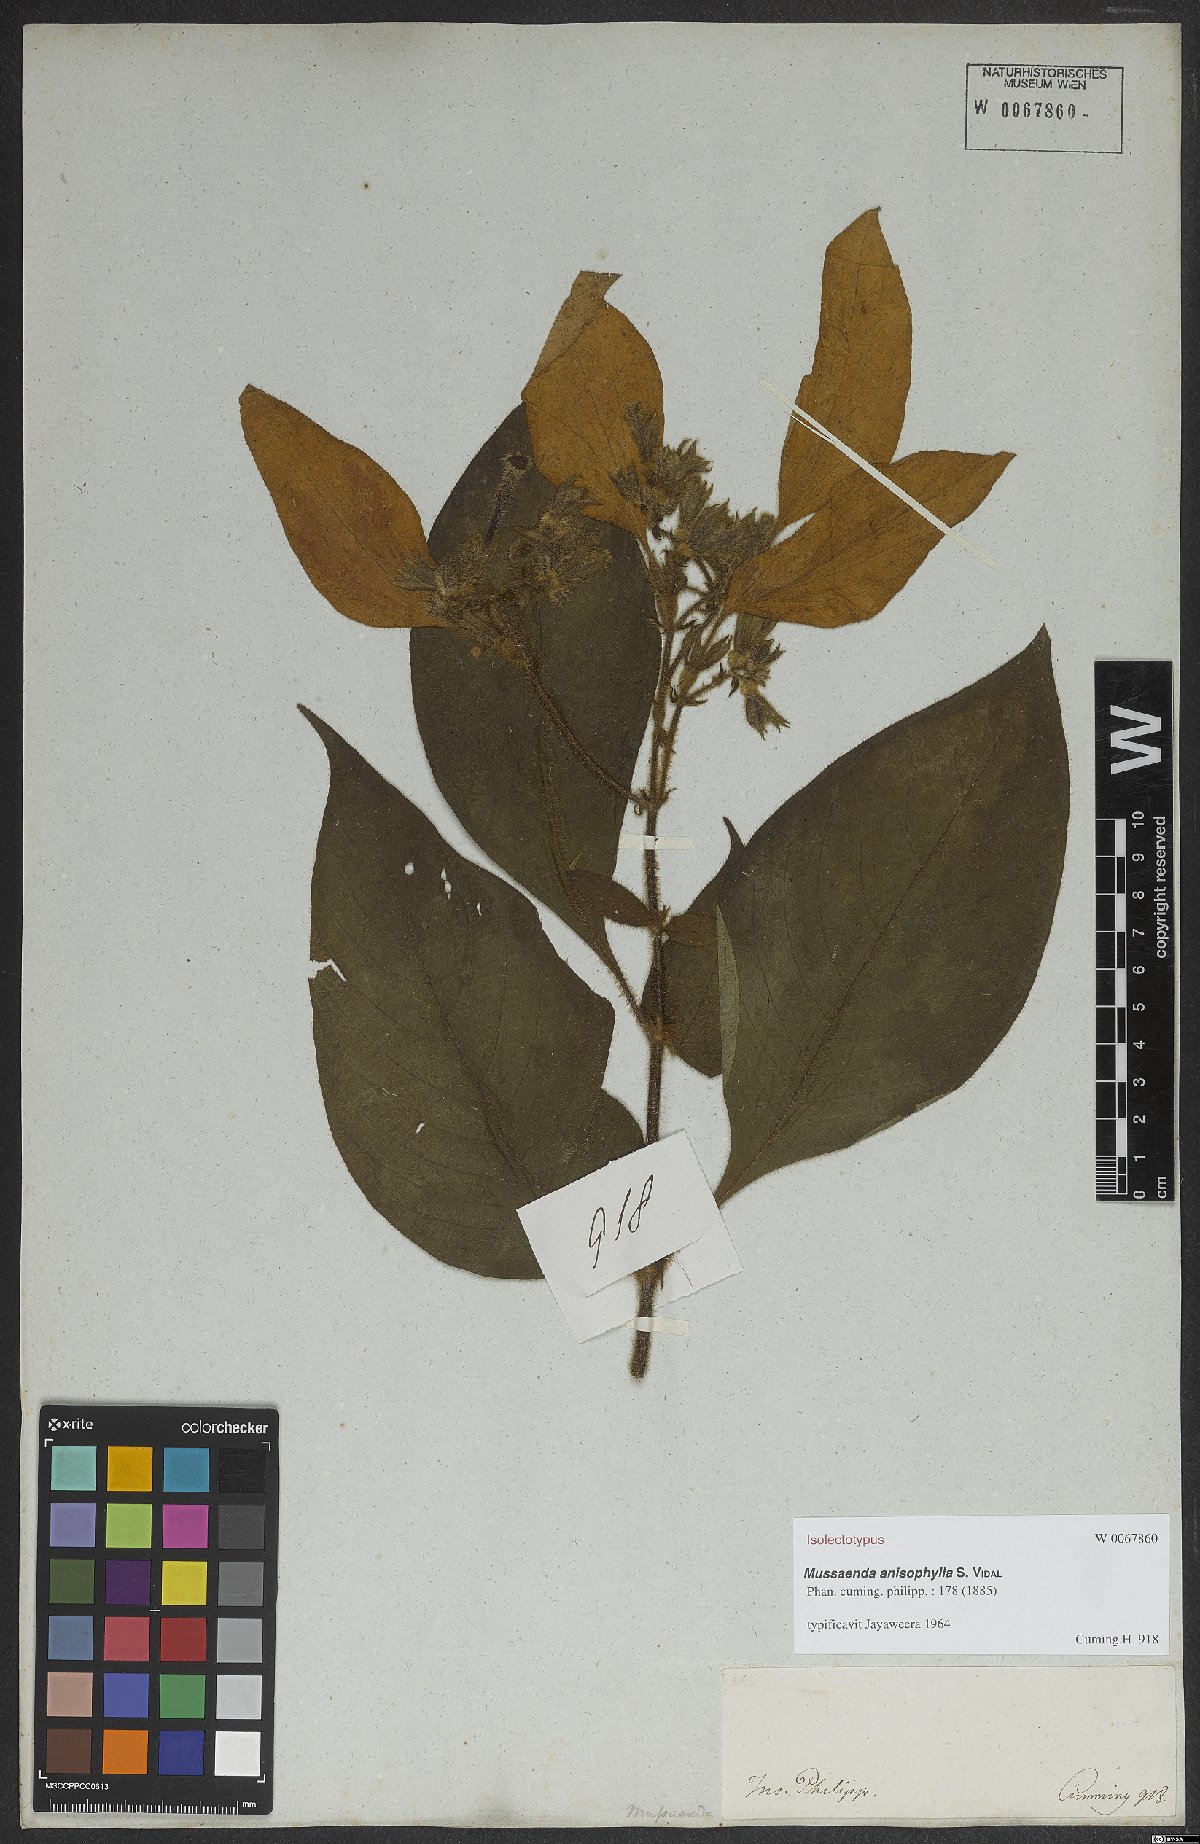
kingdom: Plantae
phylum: Tracheophyta
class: Magnoliopsida
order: Gentianales
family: Rubiaceae
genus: Mussaenda
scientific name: Mussaenda anisophylla
